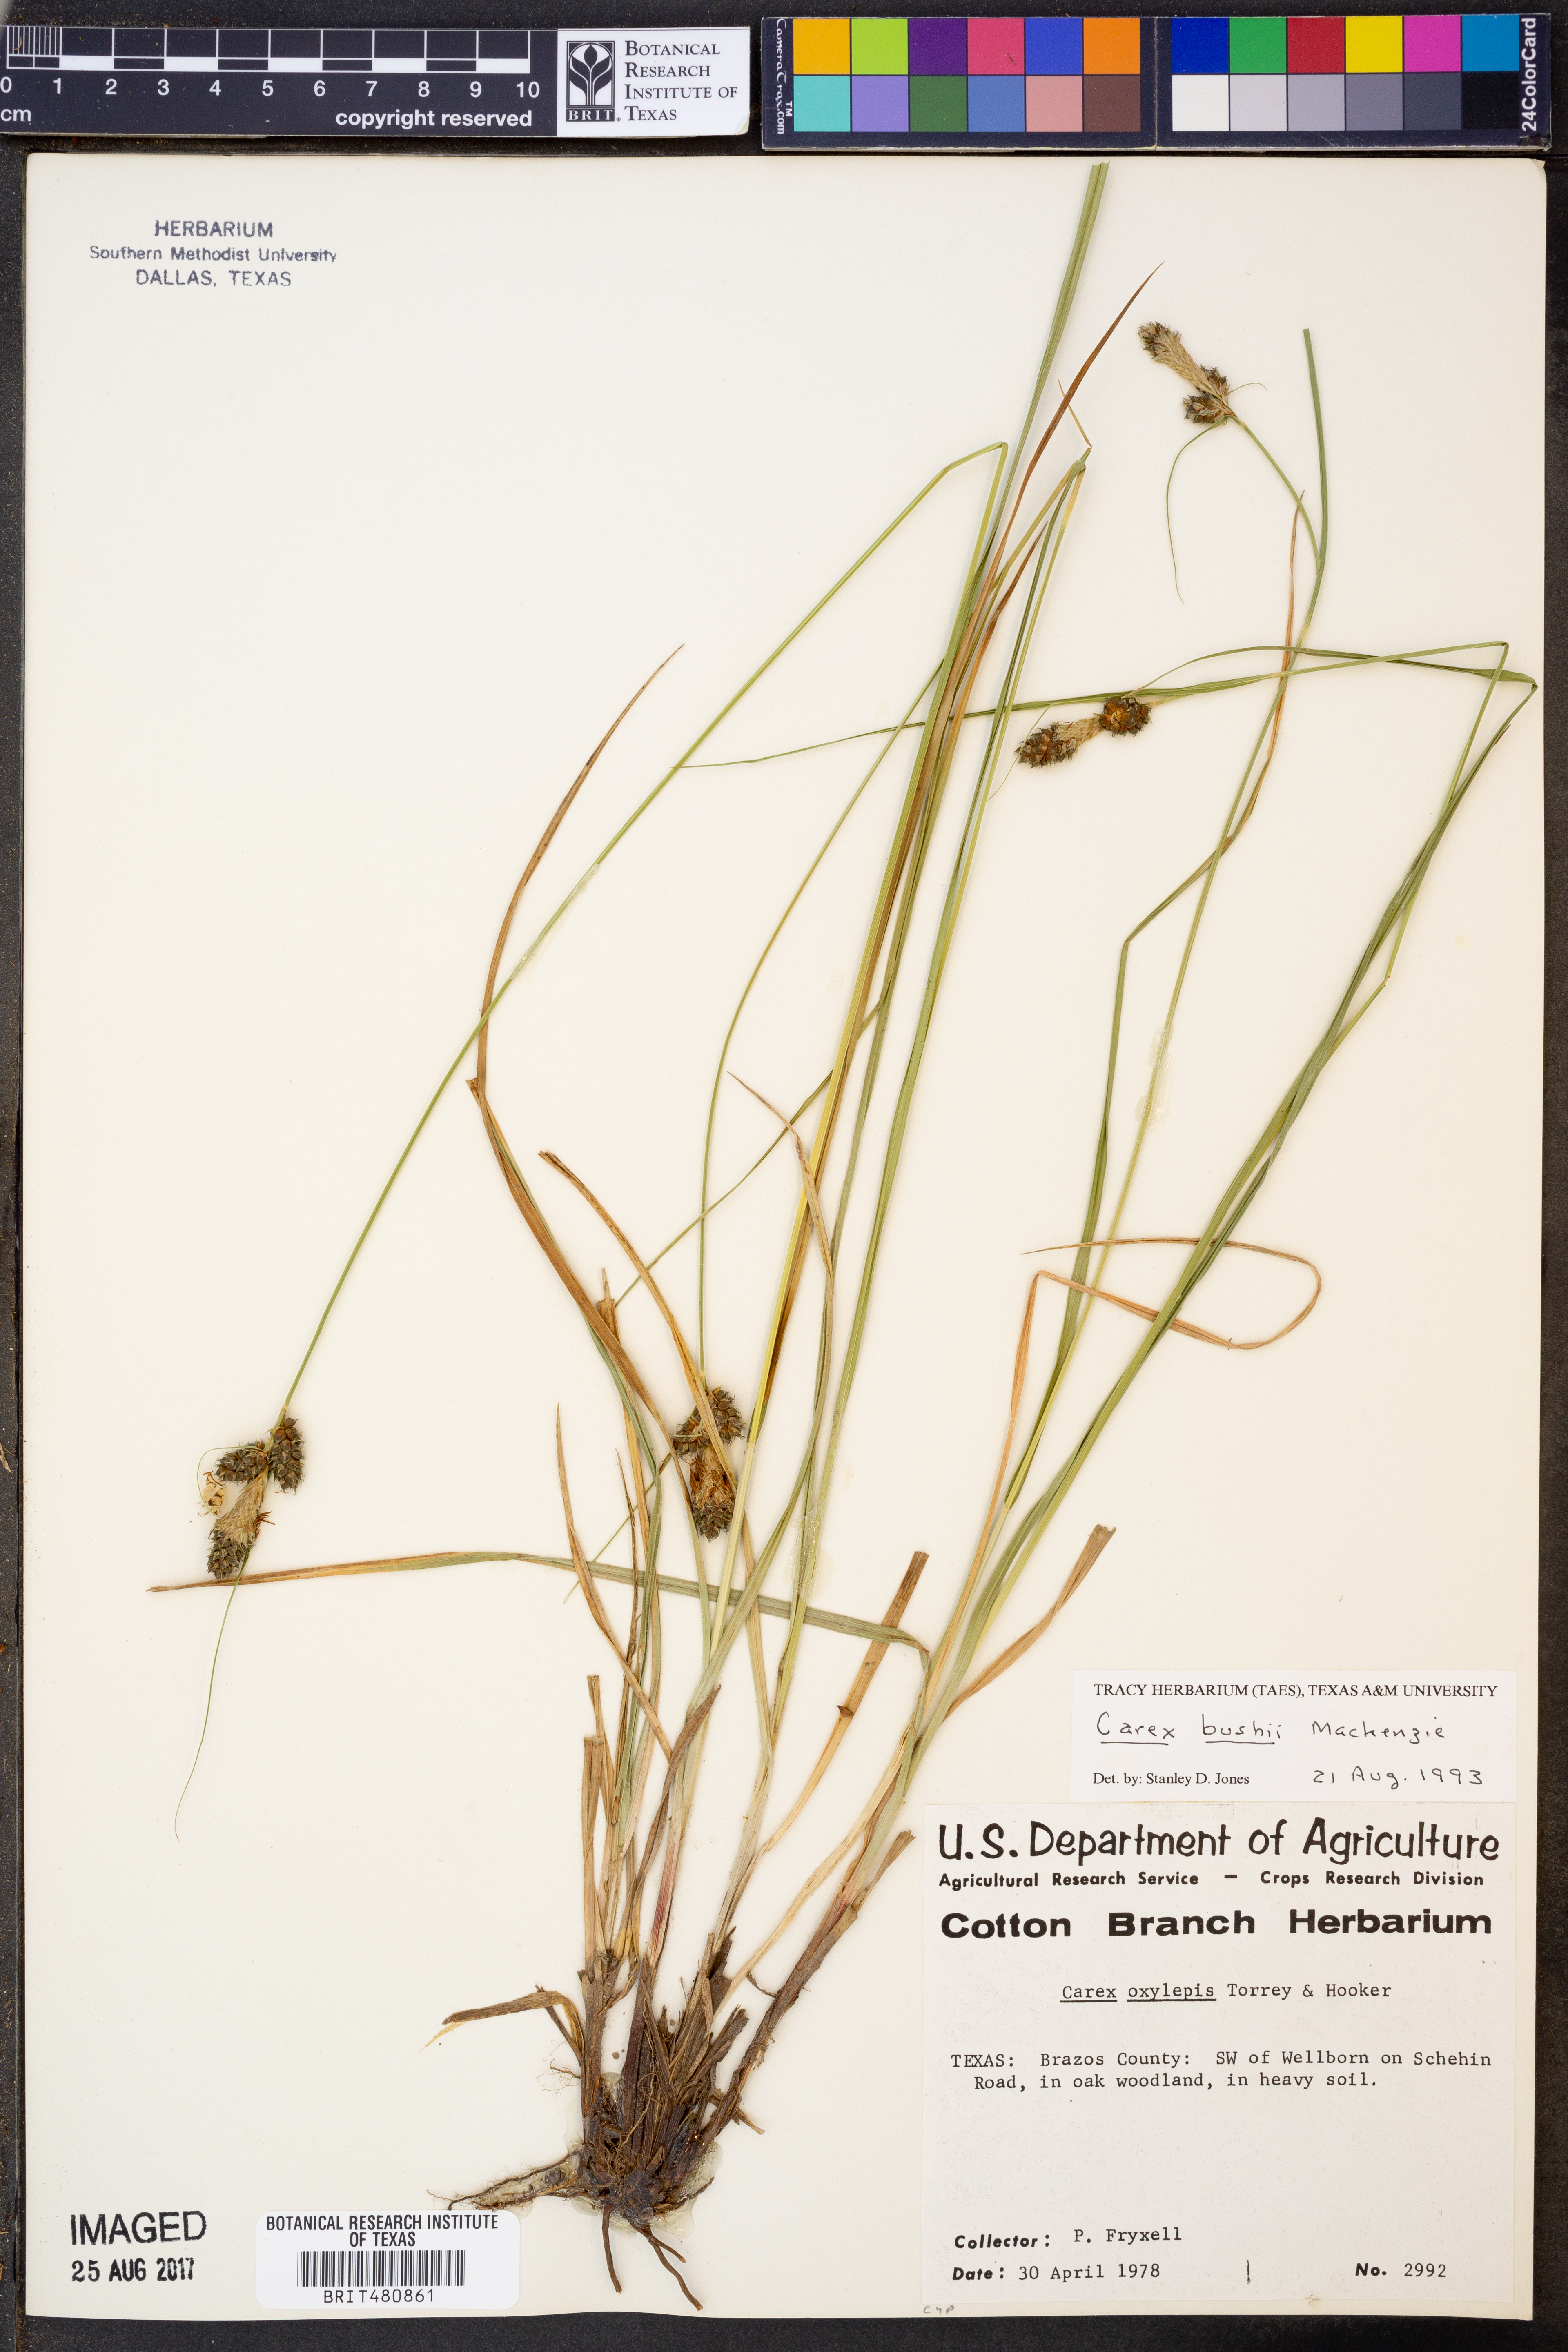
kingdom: Plantae
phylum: Tracheophyta
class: Liliopsida
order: Poales
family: Cyperaceae
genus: Carex
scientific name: Carex bushii
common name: Bush's sedge
